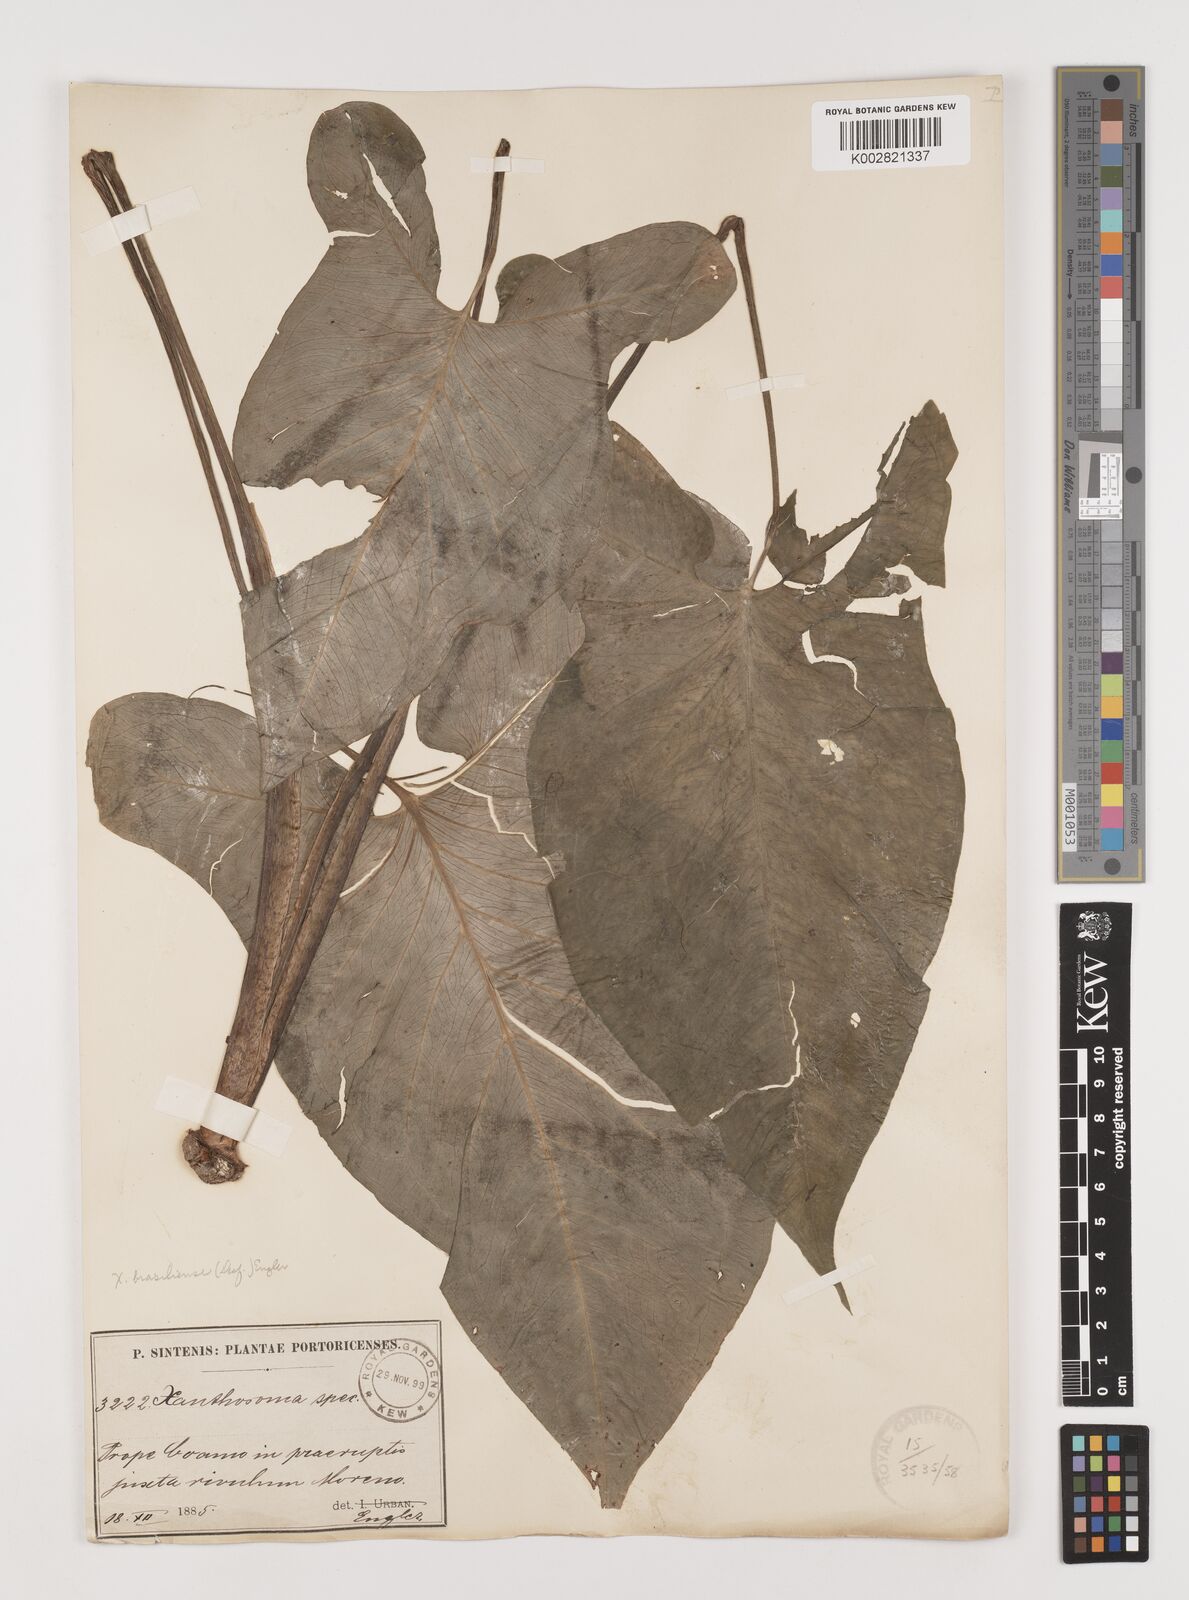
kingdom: Plantae
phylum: Tracheophyta
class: Liliopsida
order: Alismatales
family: Araceae
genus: Xanthosoma
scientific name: Xanthosoma brasiliense
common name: Tahitian-spinach
